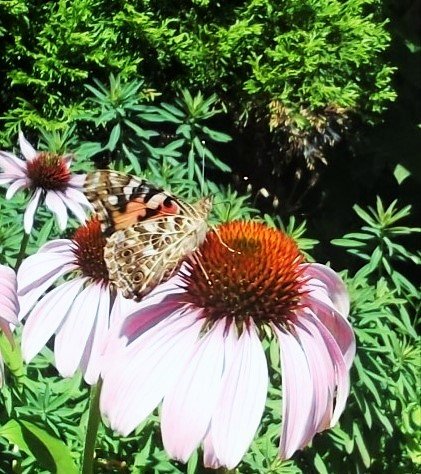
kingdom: Animalia
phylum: Arthropoda
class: Insecta
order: Lepidoptera
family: Nymphalidae
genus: Vanessa
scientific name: Vanessa cardui
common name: Painted Lady
